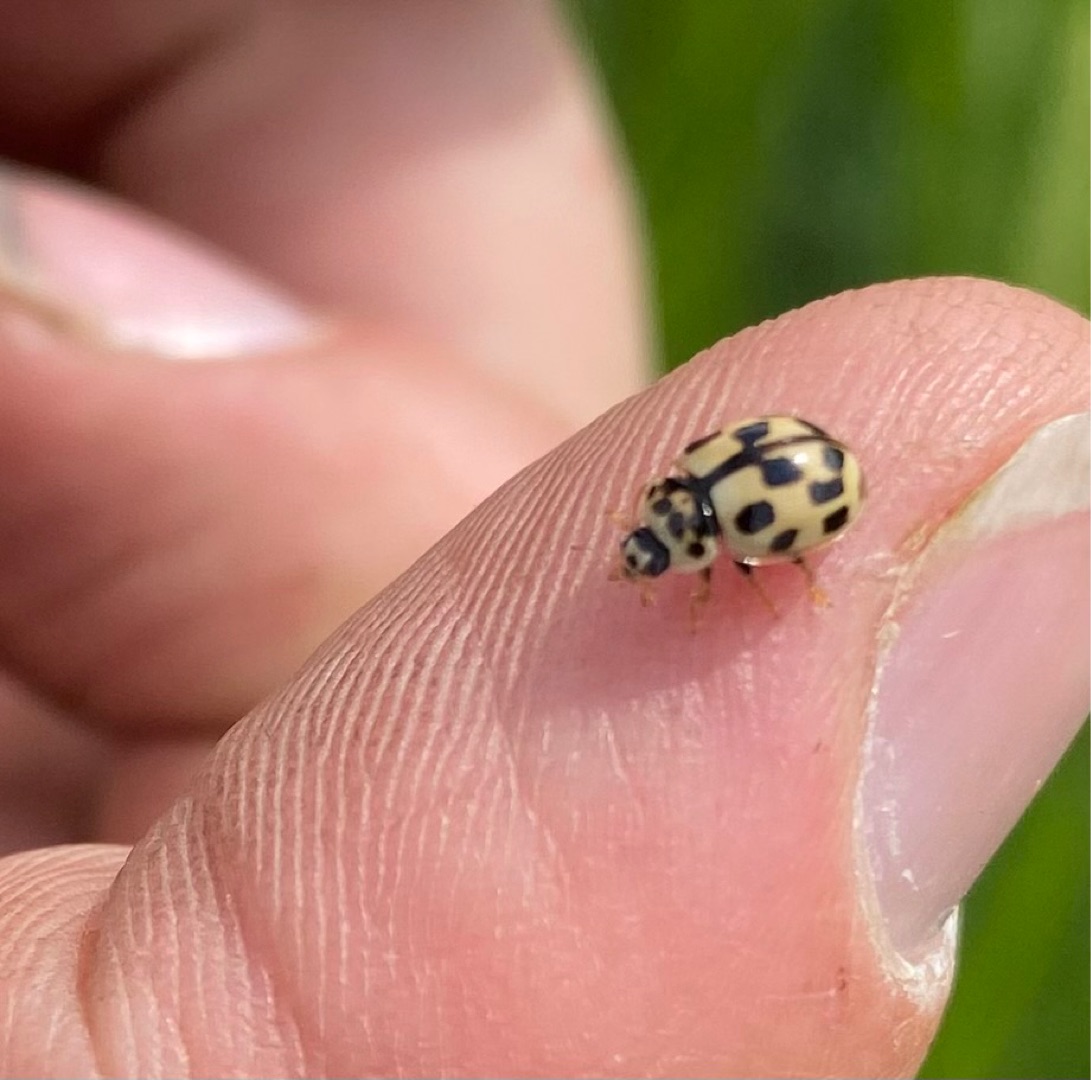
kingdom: Animalia
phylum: Arthropoda
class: Insecta
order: Coleoptera
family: Coccinellidae
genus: Propylaea
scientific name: Propylaea quatuordecimpunctata
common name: Skakbræt
